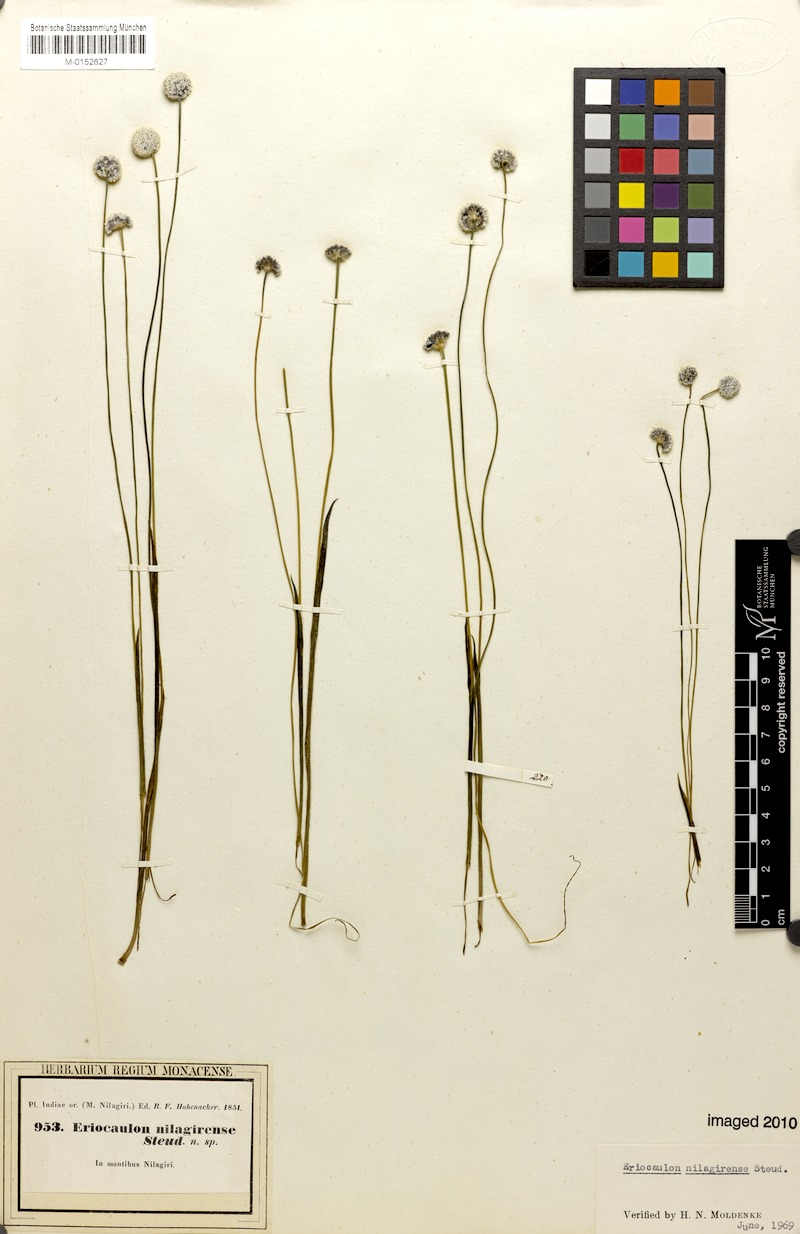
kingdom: Plantae
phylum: Tracheophyta
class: Liliopsida
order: Poales
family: Eriocaulaceae
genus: Eriocaulon
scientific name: Eriocaulon brownianum
